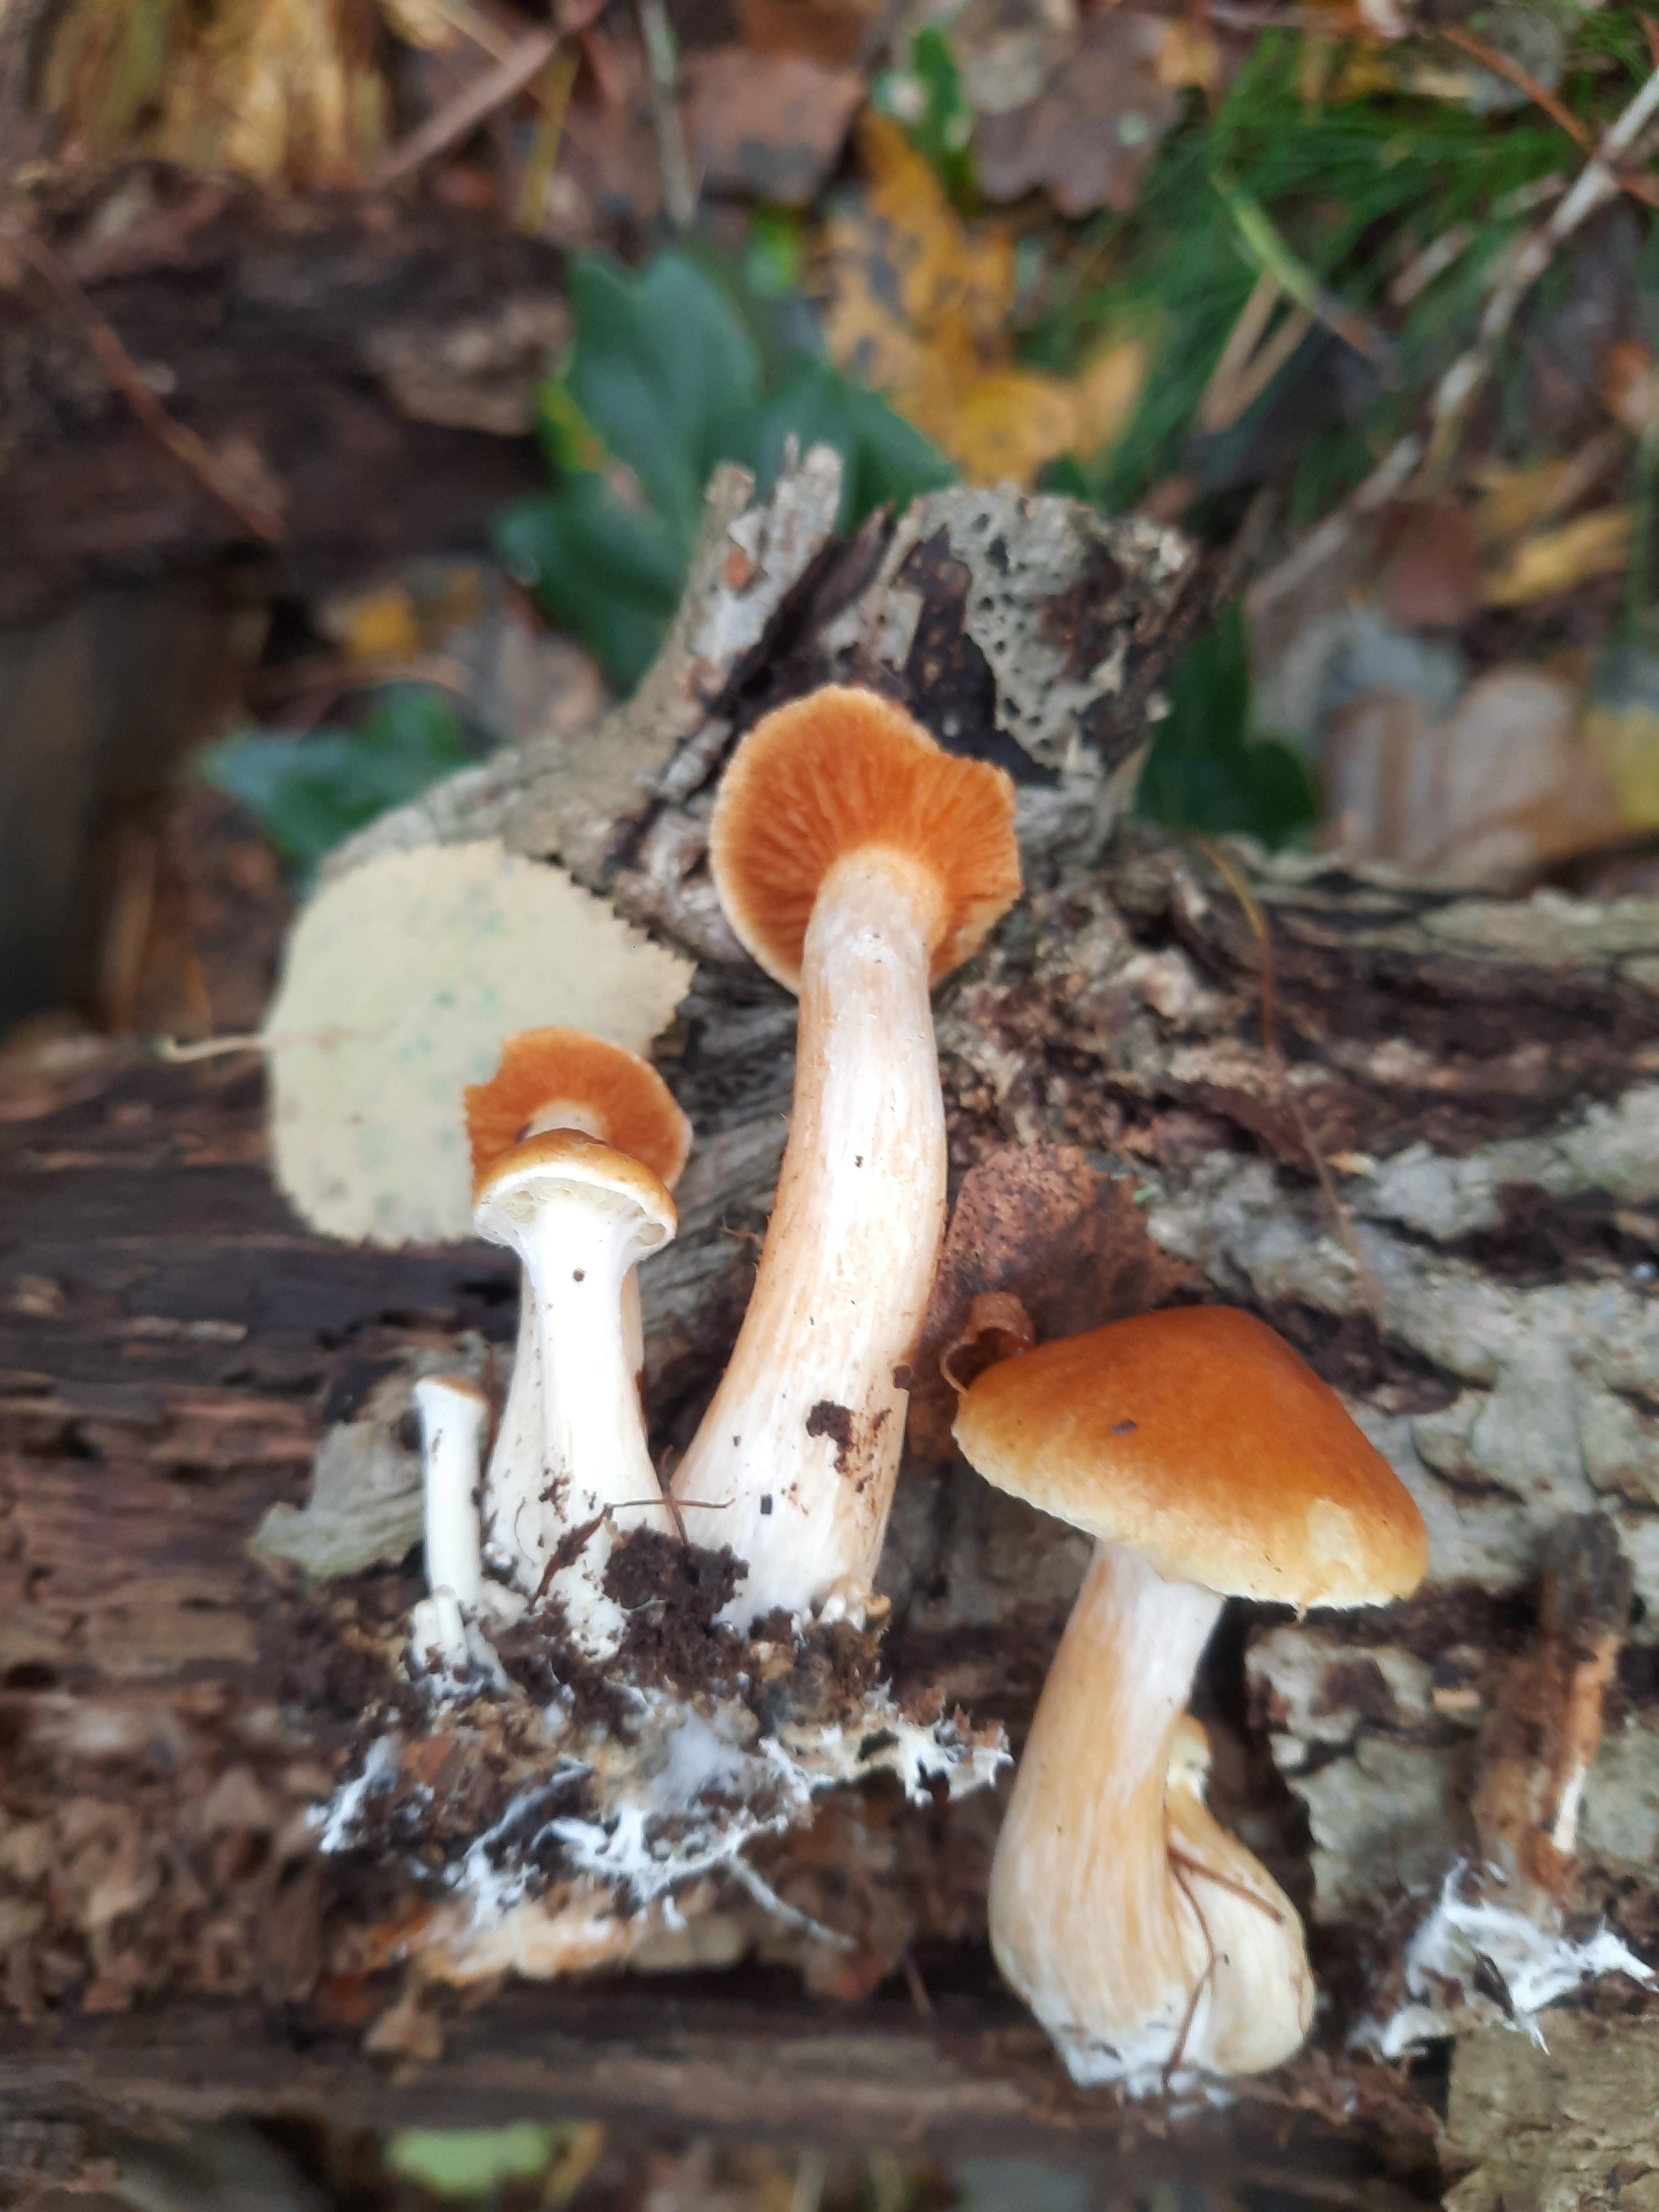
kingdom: Fungi
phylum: Basidiomycota
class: Agaricomycetes
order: Agaricales
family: Hymenogastraceae
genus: Gymnopilus
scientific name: Gymnopilus penetrans
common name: plettet flammehat
